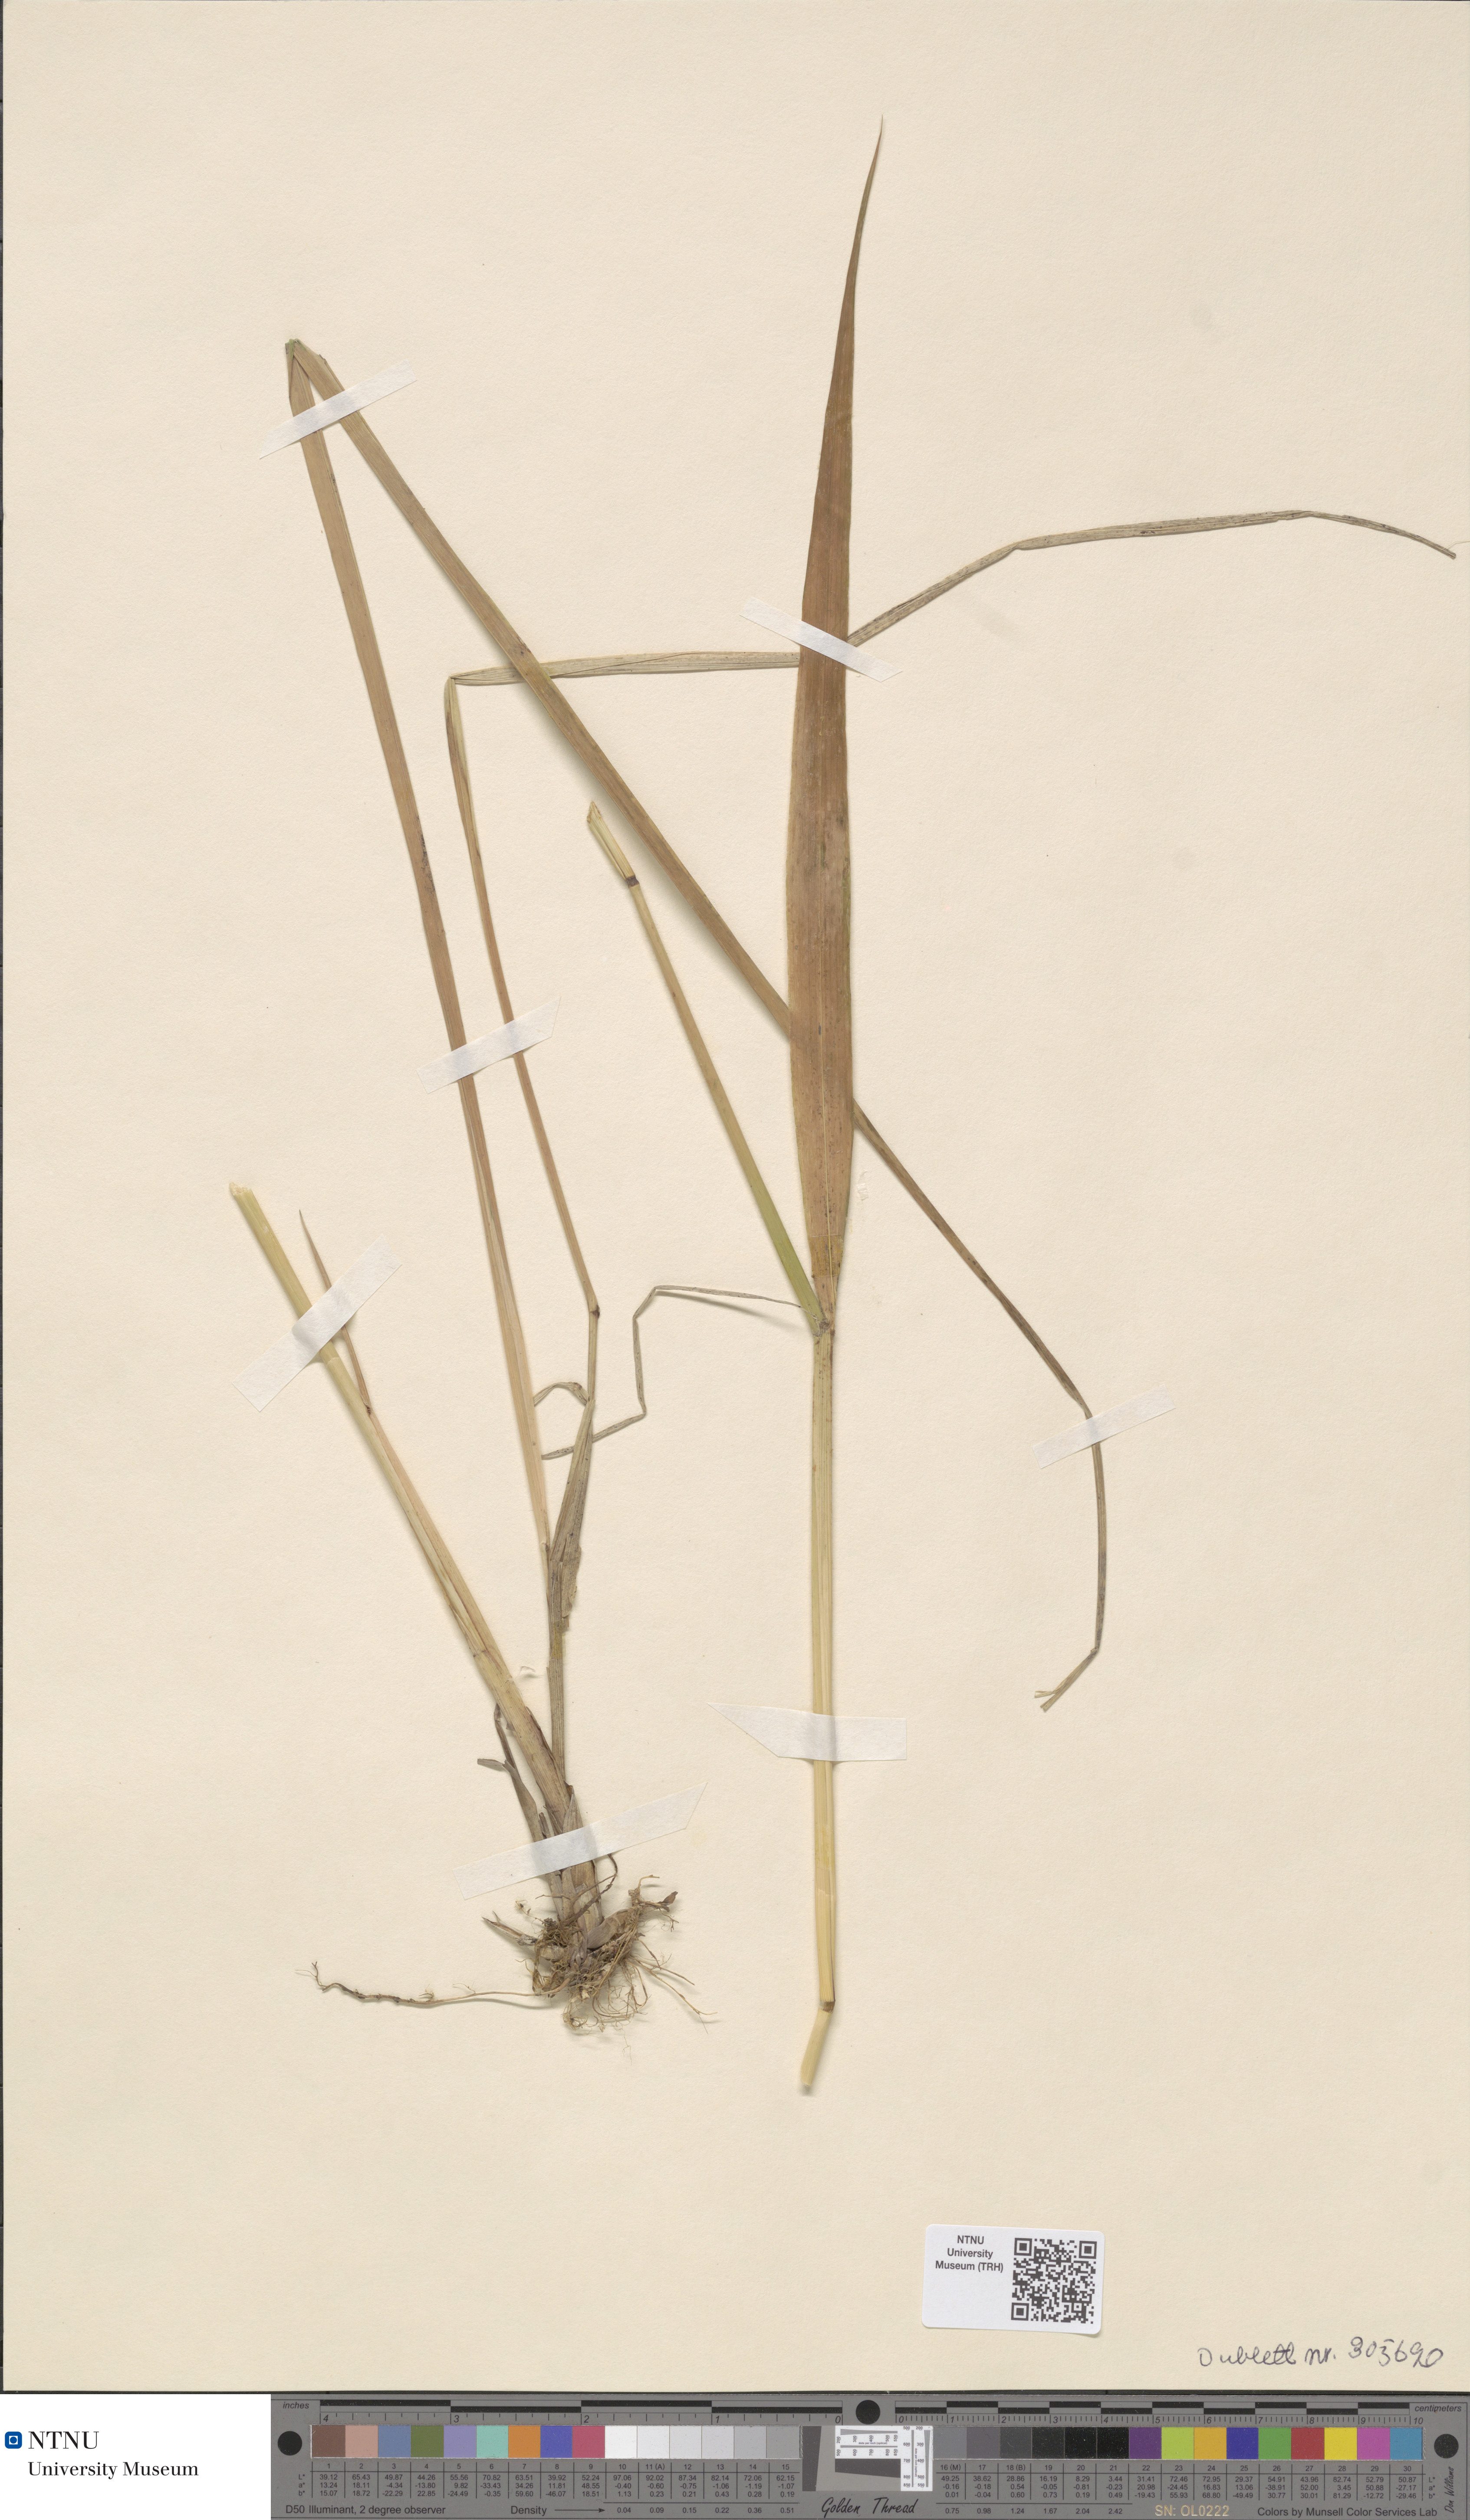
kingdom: Plantae
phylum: Tracheophyta
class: Liliopsida
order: Poales
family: Poaceae
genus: Festuca
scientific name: Festuca altissima
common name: Wood fescue
